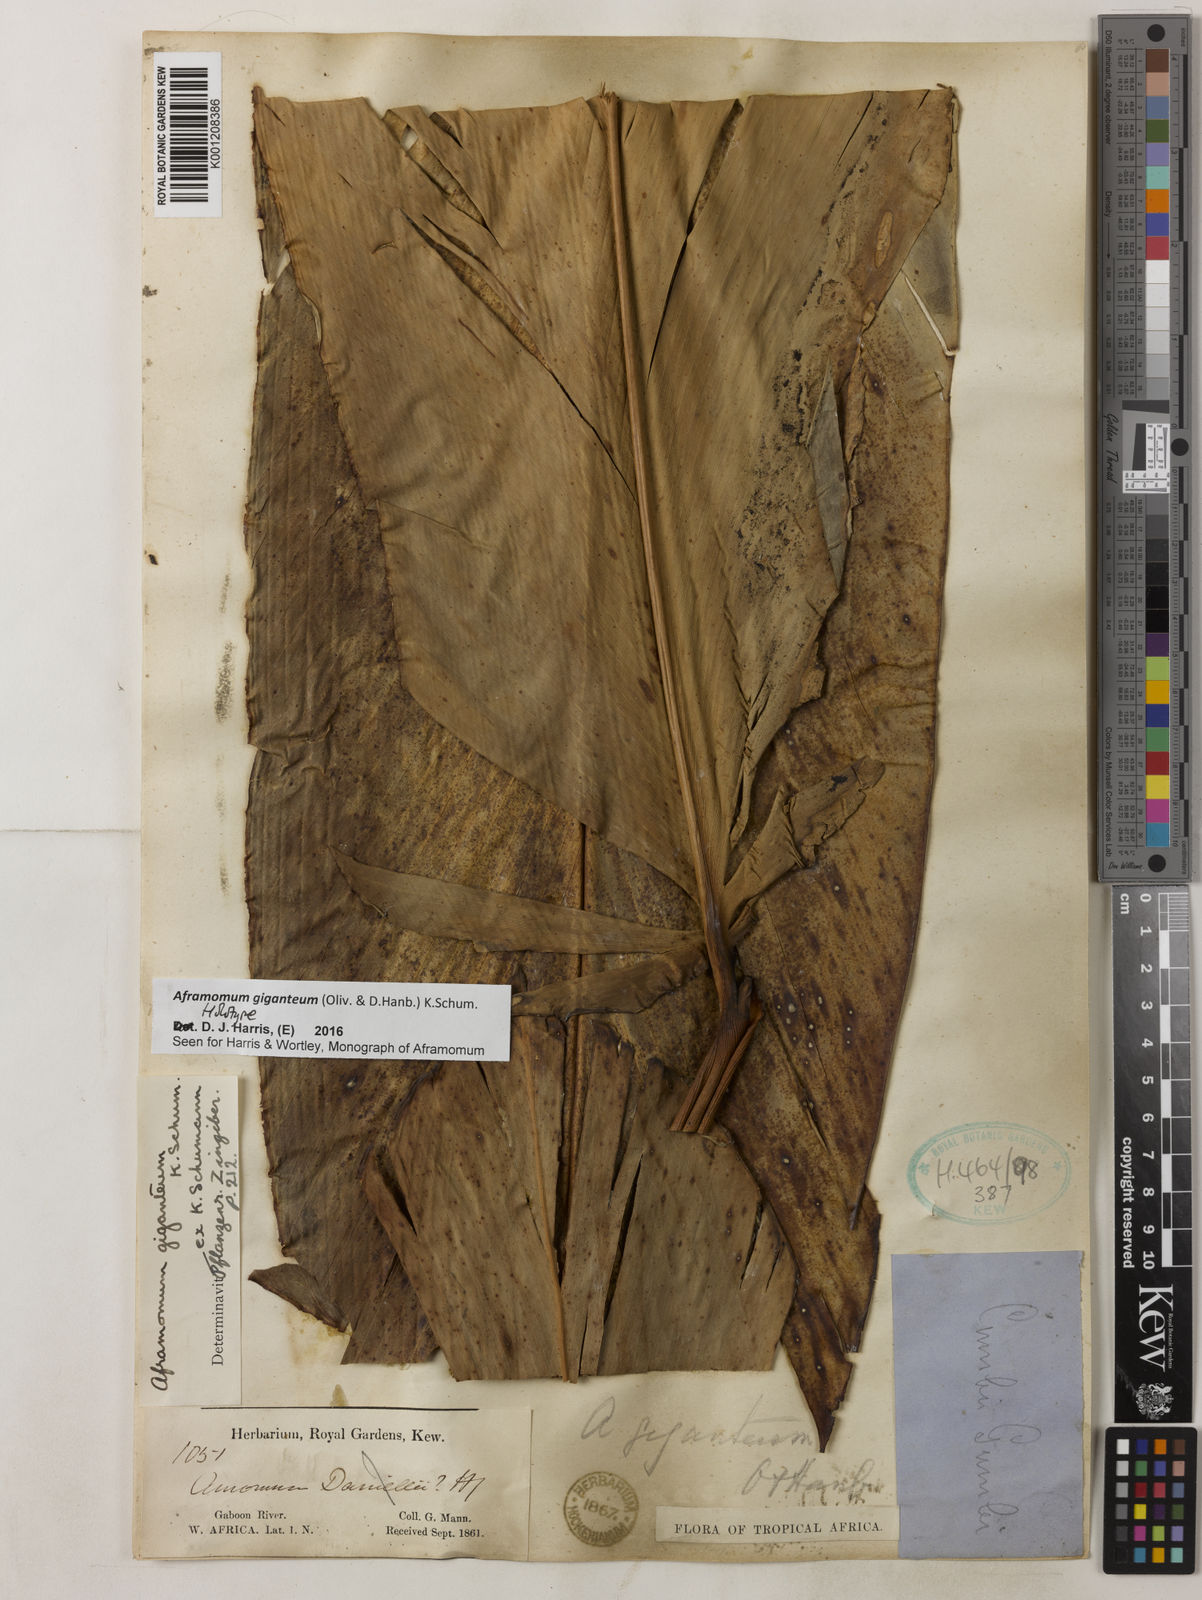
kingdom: Plantae
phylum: Tracheophyta
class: Liliopsida
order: Zingiberales
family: Zingiberaceae
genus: Aframomum
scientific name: Aframomum giganteum
